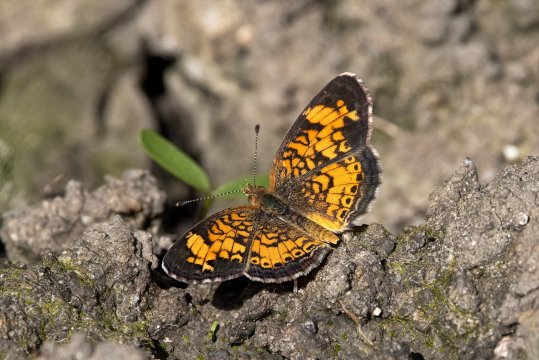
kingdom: Animalia
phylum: Arthropoda
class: Insecta
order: Lepidoptera
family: Nymphalidae
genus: Phyciodes
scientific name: Phyciodes tharos
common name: Pearl Crescent
